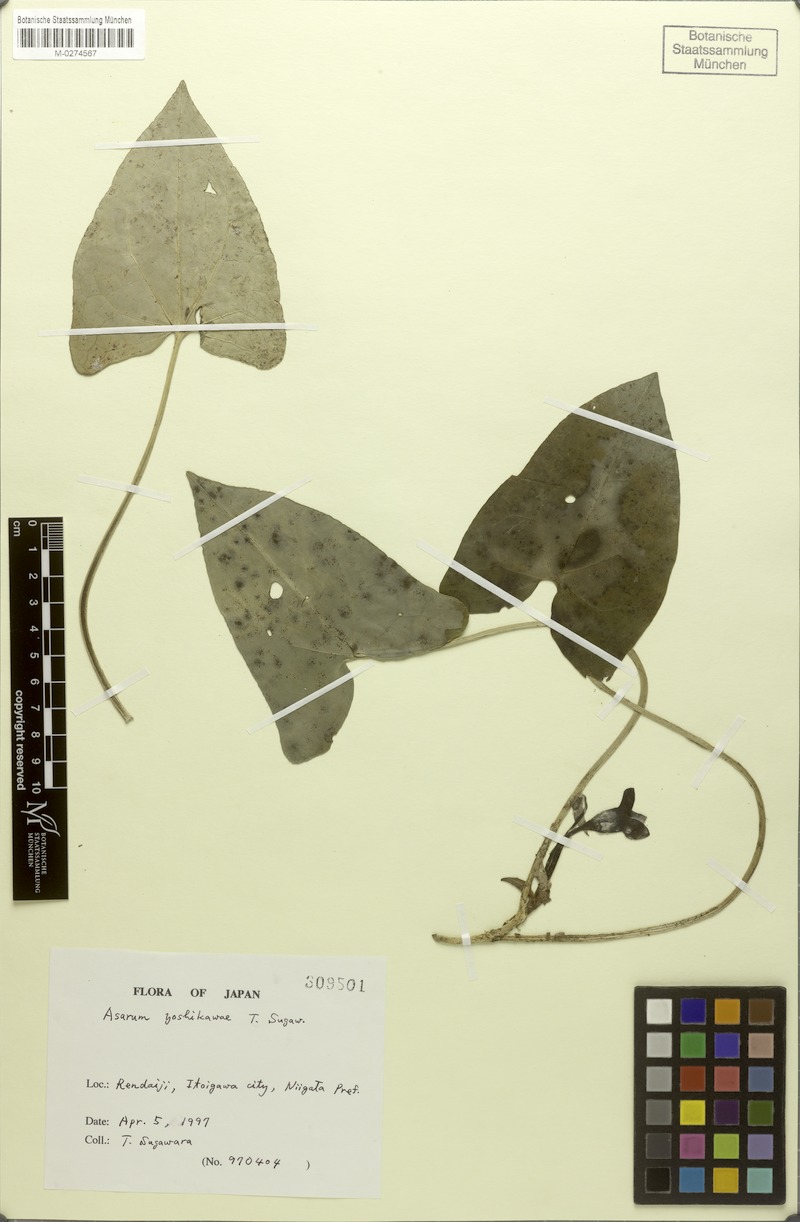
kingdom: Plantae
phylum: Tracheophyta
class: Magnoliopsida
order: Piperales
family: Aristolochiaceae
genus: Asarum
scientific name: Asarum yoshikawae
